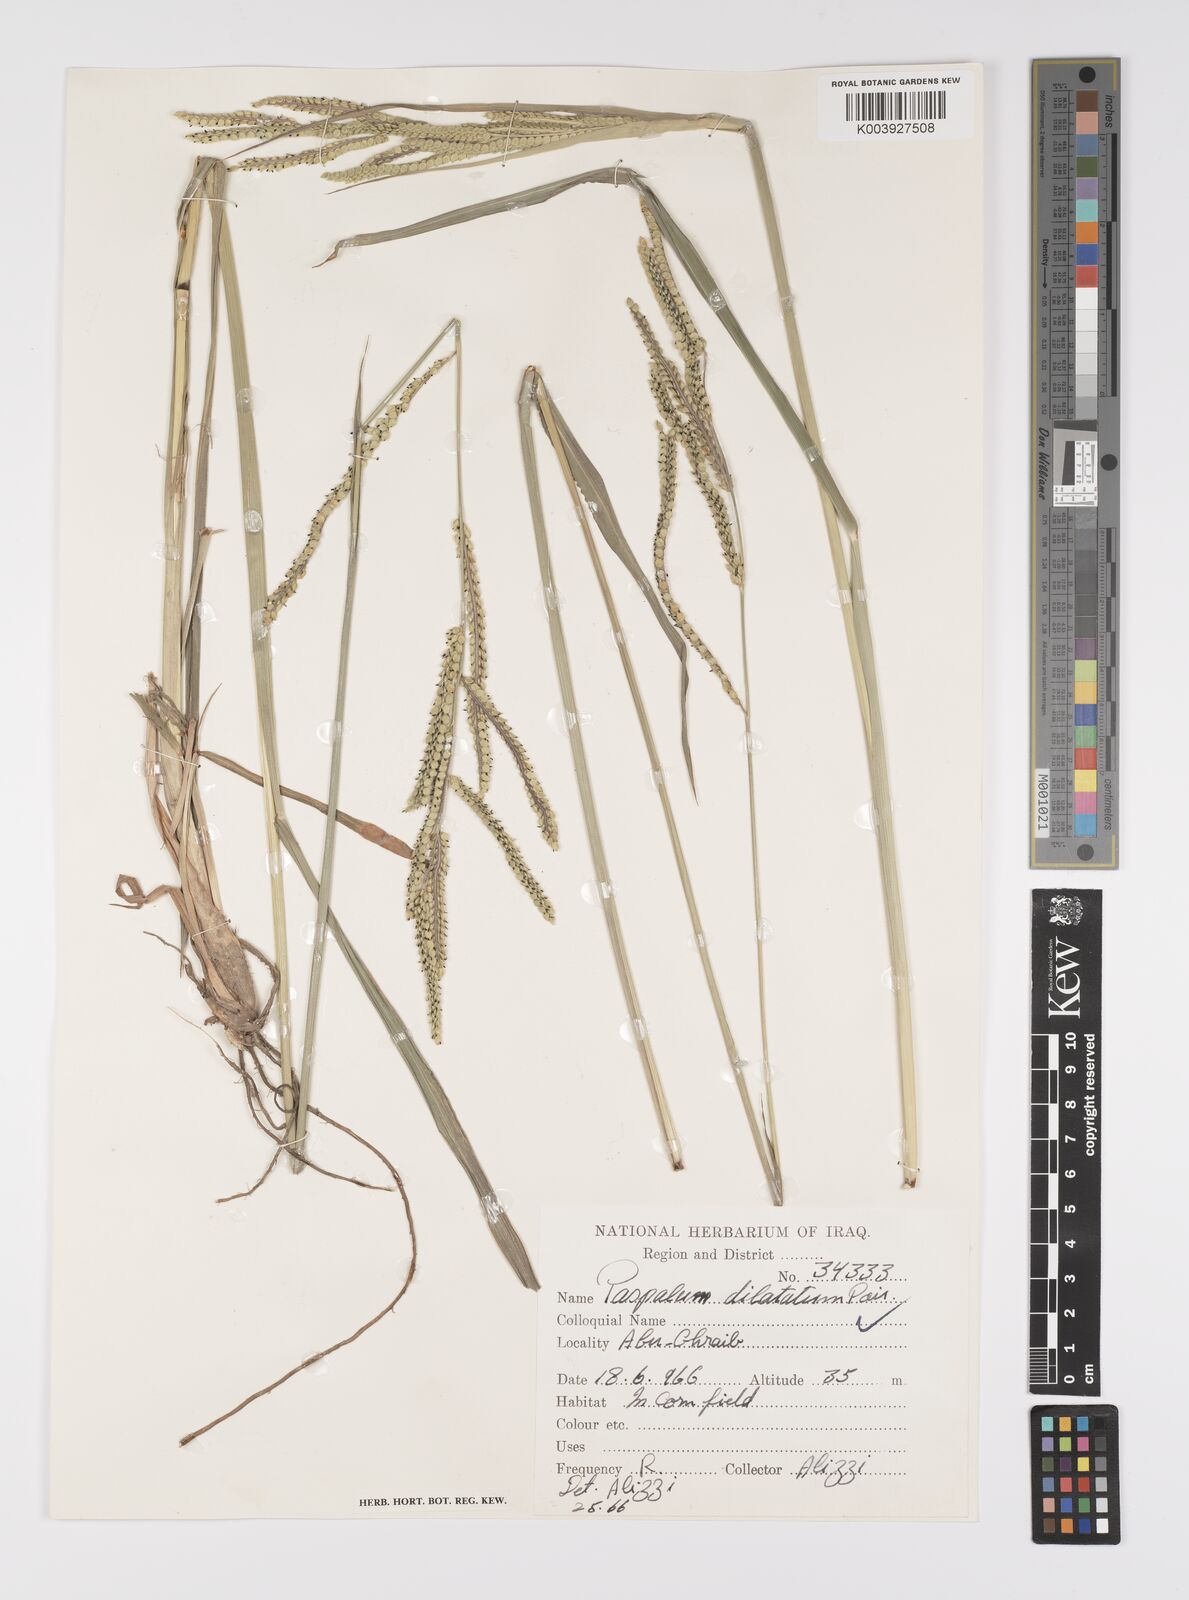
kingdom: Plantae
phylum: Tracheophyta
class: Liliopsida
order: Poales
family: Poaceae
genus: Paspalum
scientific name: Paspalum distichum
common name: Knotgrass
